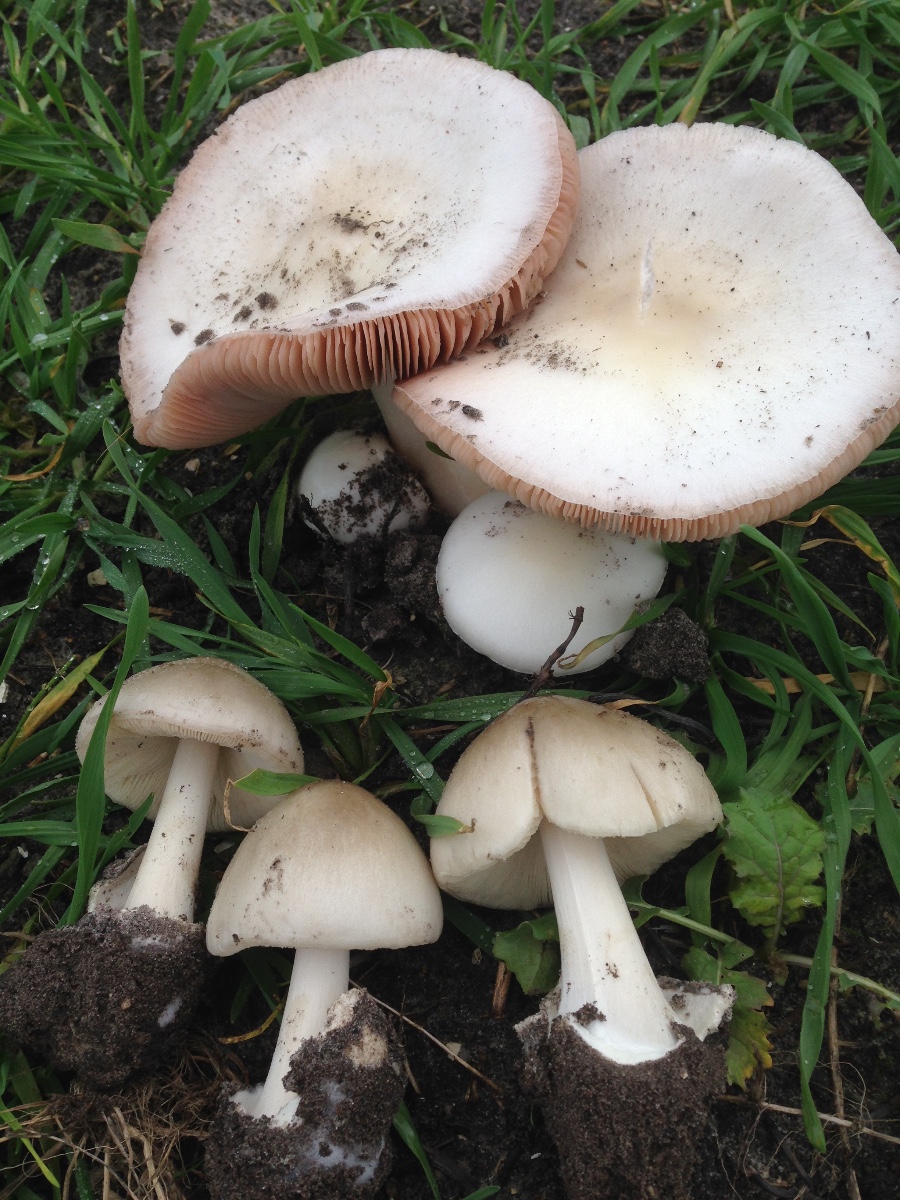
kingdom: Fungi
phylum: Basidiomycota
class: Agaricomycetes
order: Agaricales
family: Pluteaceae
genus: Volvopluteus
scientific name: Volvopluteus gloiocephalus
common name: høj posesvamp
